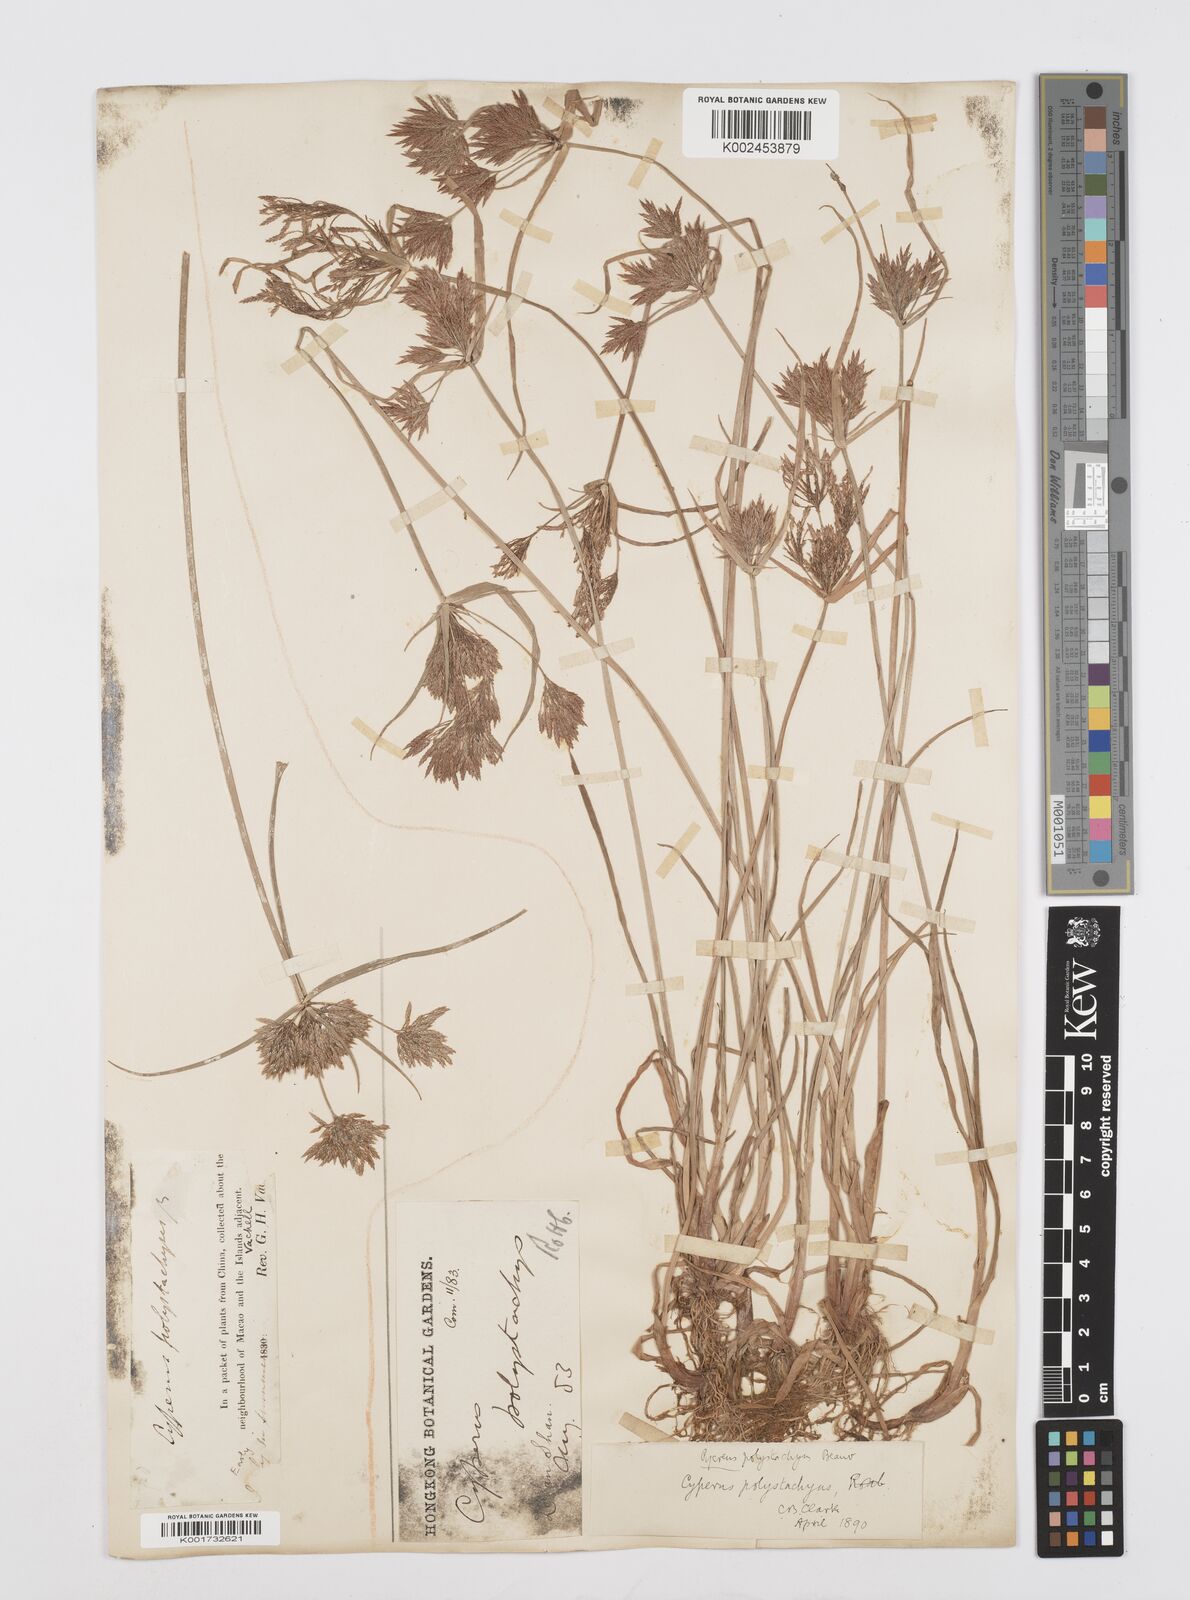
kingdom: Plantae
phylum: Tracheophyta
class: Liliopsida
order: Poales
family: Cyperaceae
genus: Cyperus
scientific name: Cyperus polystachyos
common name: Bunchy flat sedge
